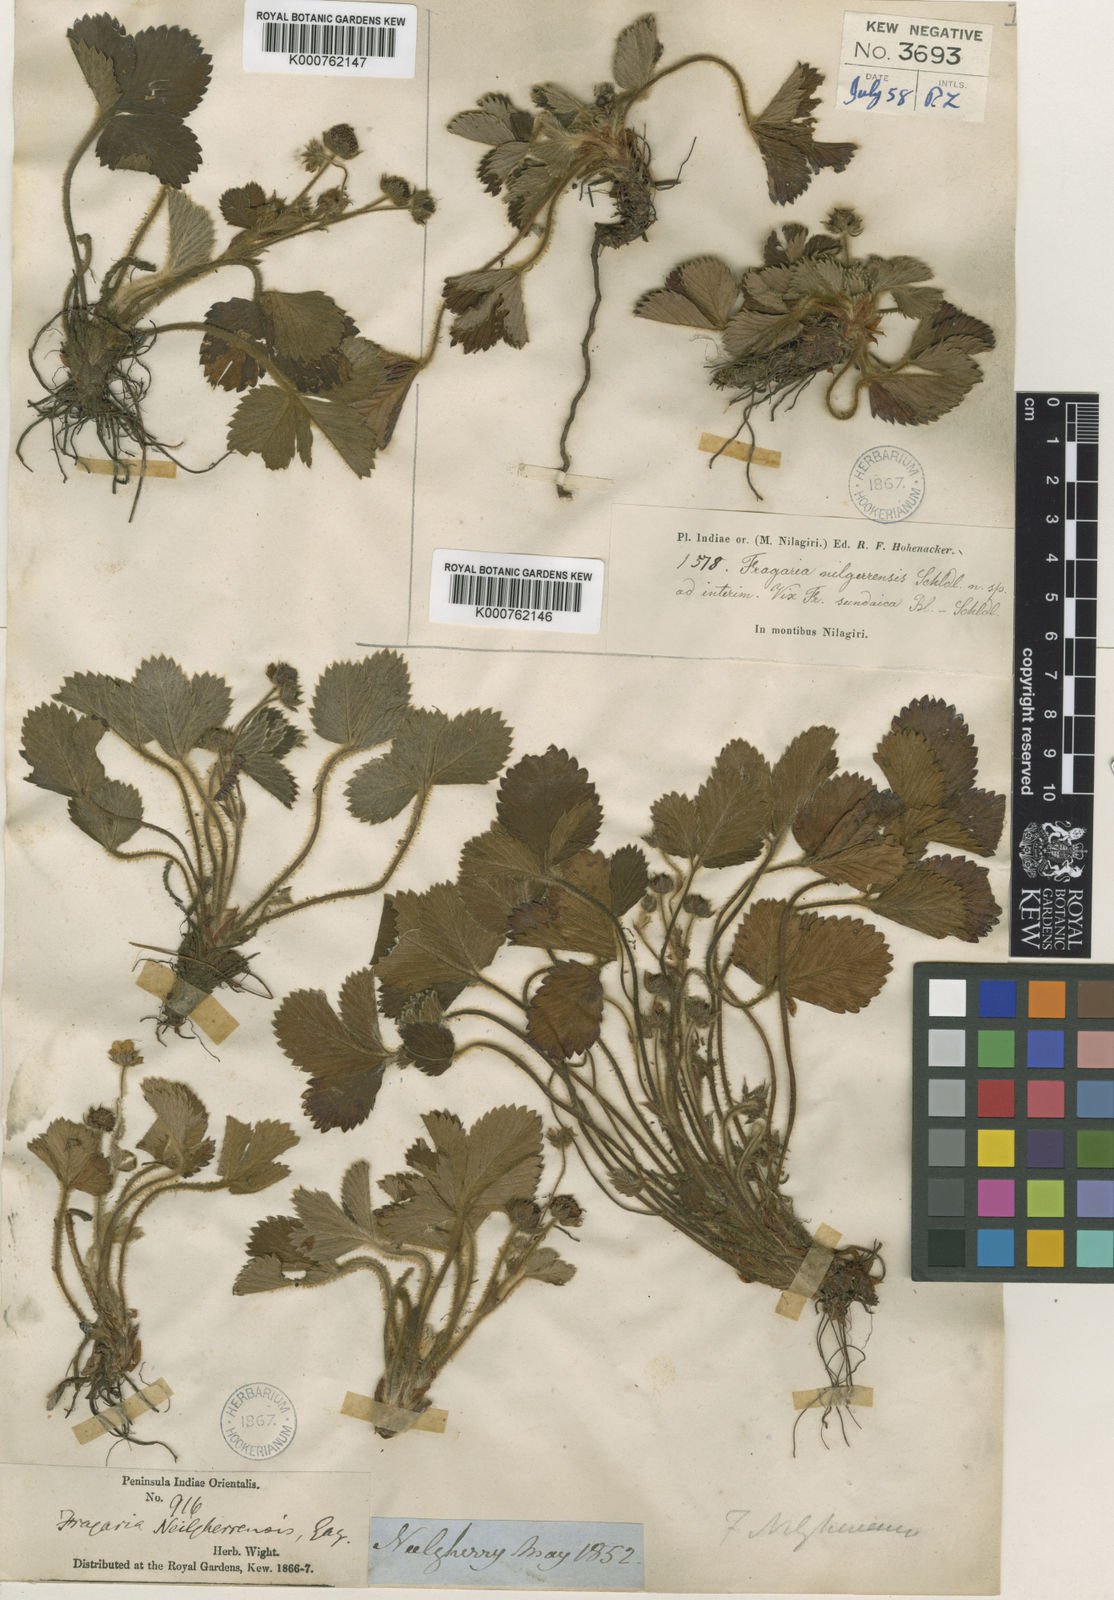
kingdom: Plantae
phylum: Tracheophyta
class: Magnoliopsida
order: Rosales
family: Rosaceae
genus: Fragaria
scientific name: Fragaria nilgerrensis
